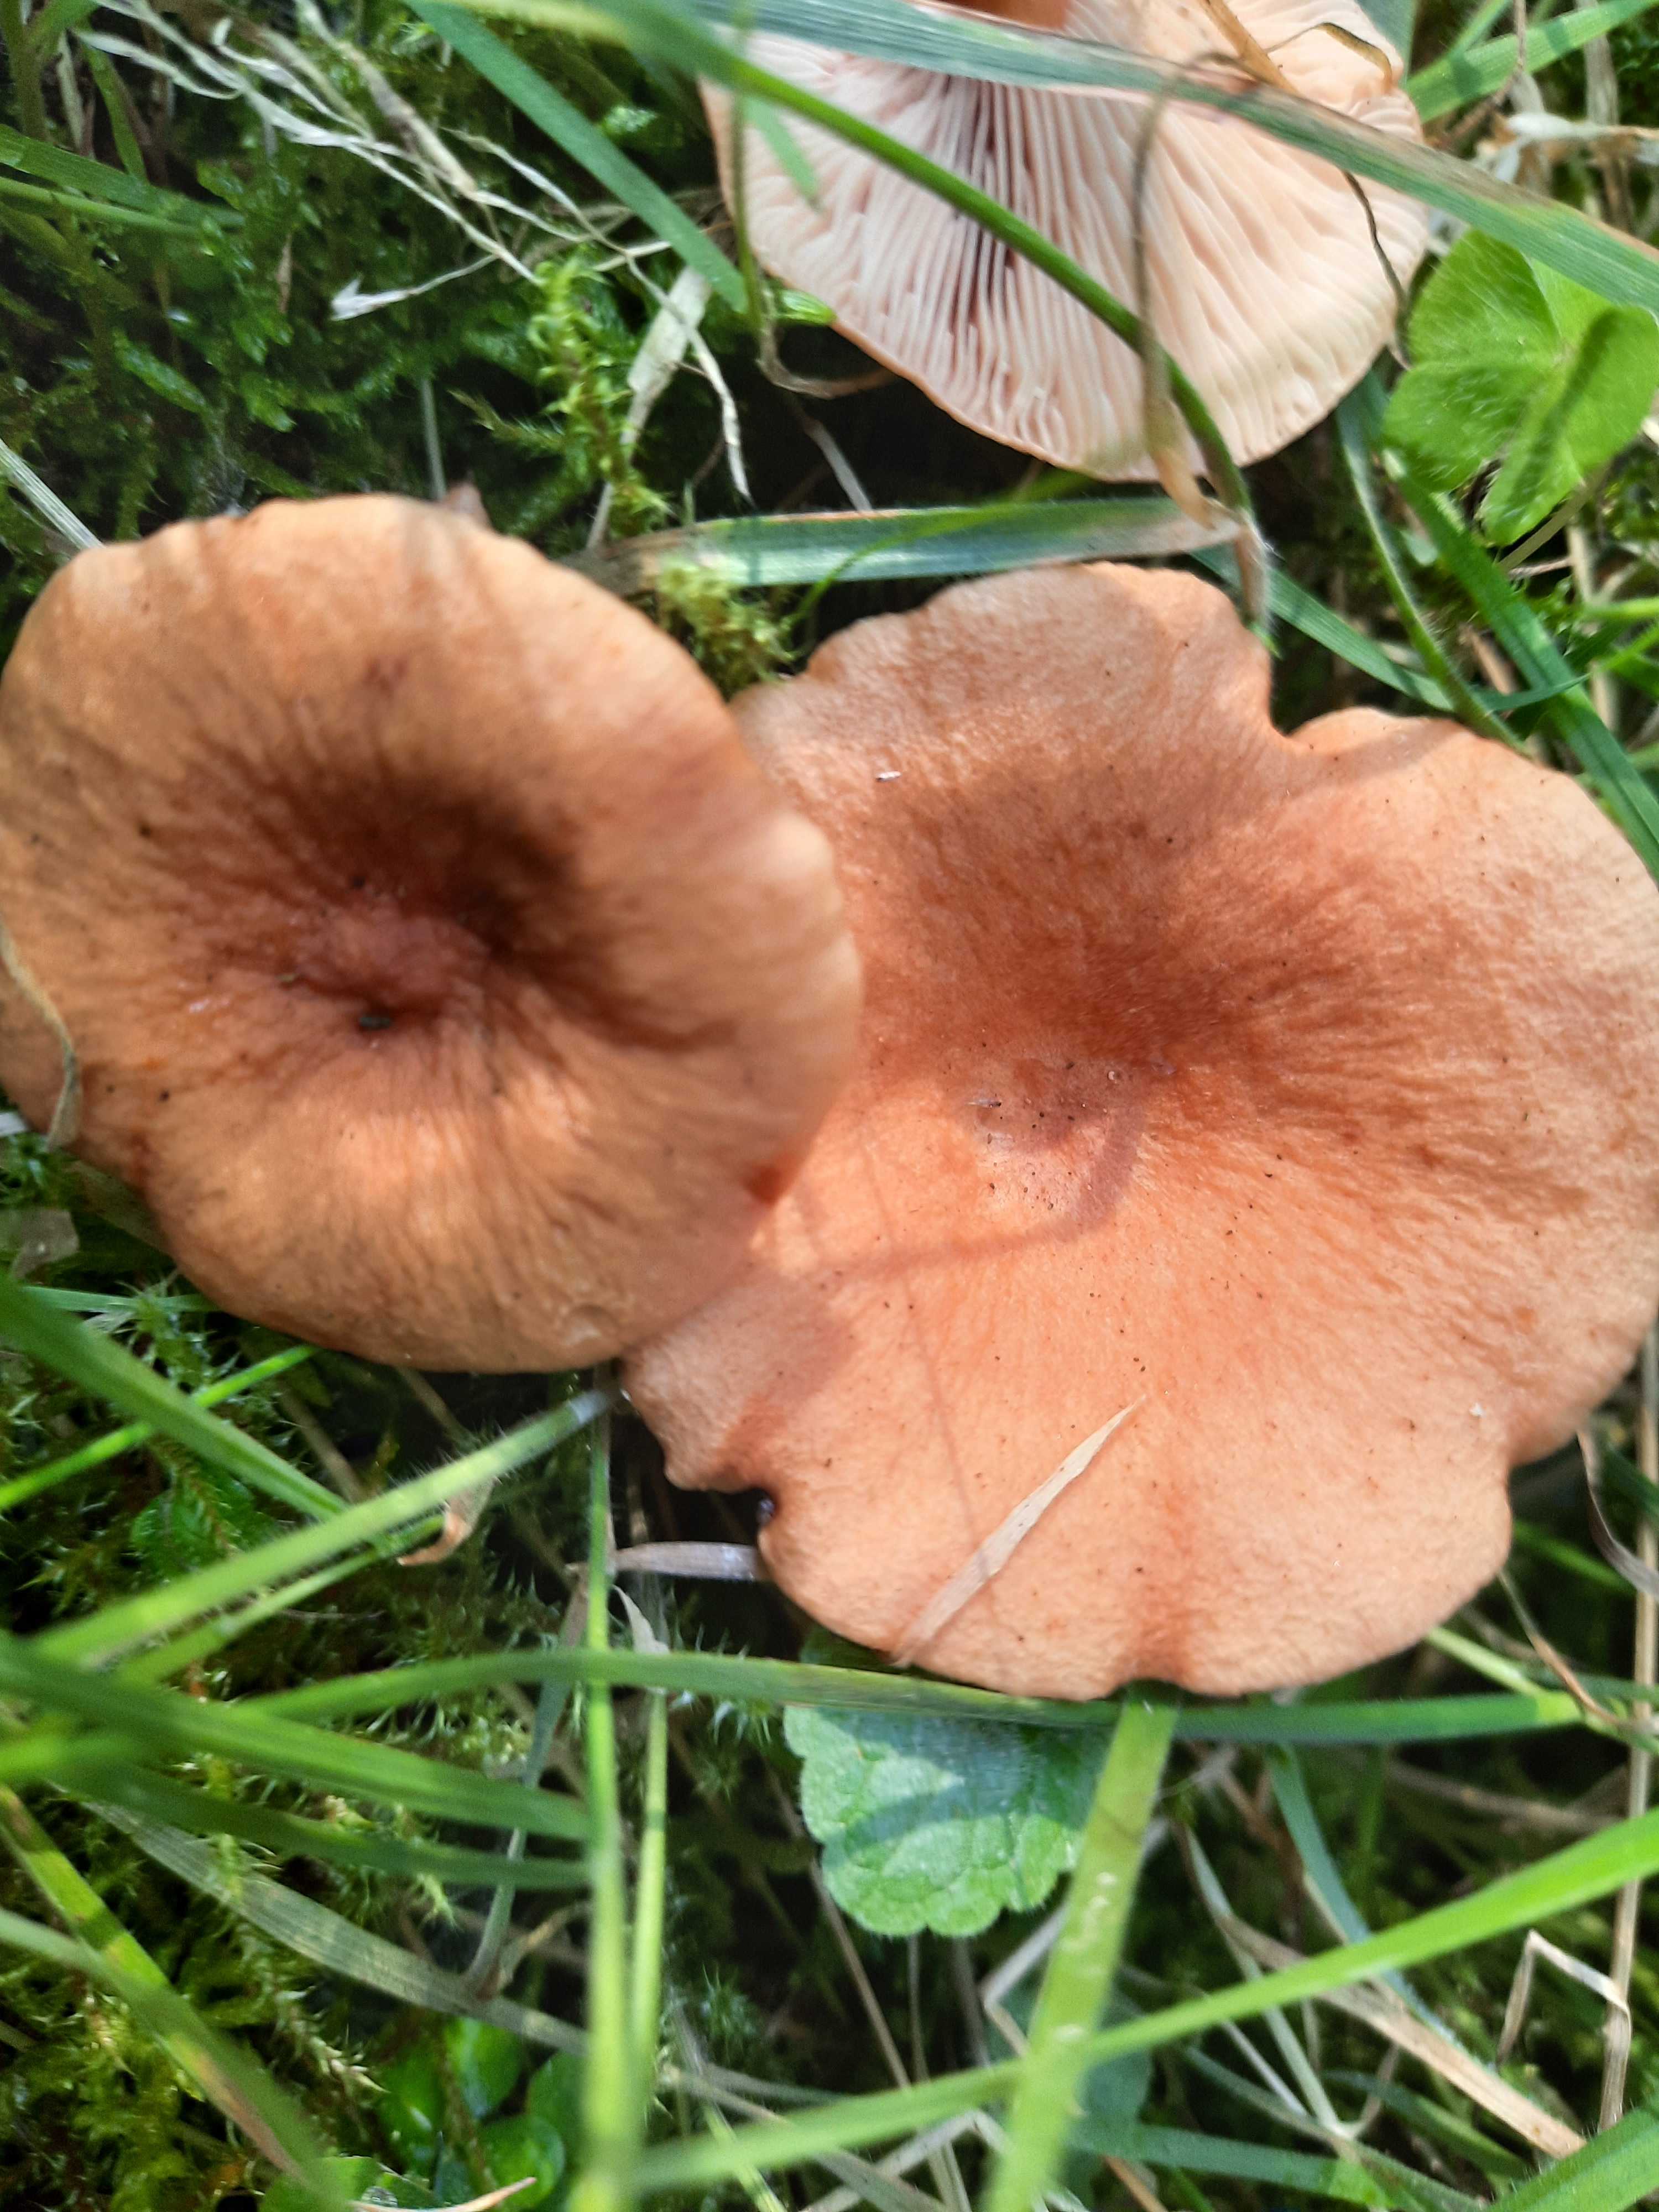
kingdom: Fungi
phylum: Basidiomycota
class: Agaricomycetes
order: Russulales
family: Russulaceae
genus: Lactarius
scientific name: Lactarius tabidus
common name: rynket mælkehat
